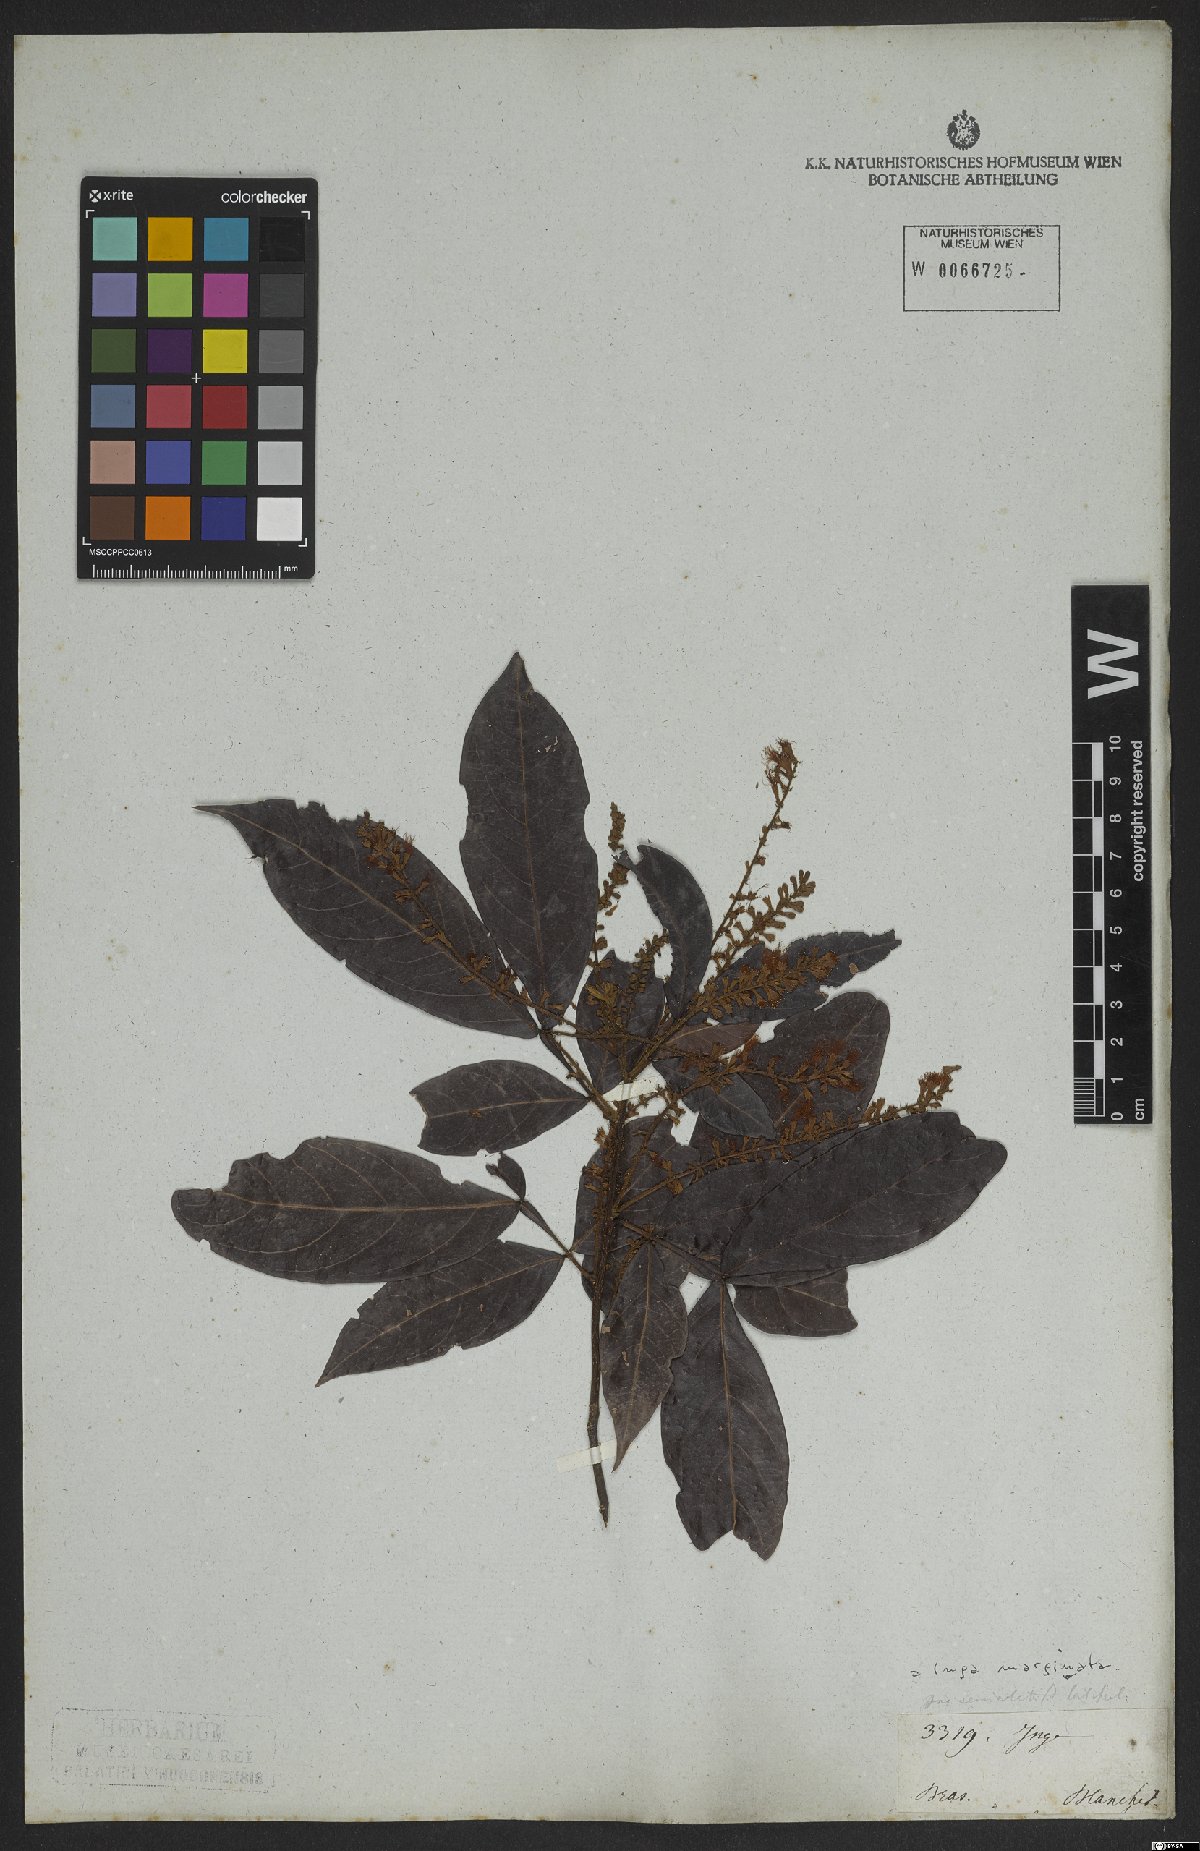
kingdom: Plantae
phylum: Tracheophyta
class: Magnoliopsida
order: Fabales
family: Fabaceae
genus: Inga
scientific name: Inga marginata
